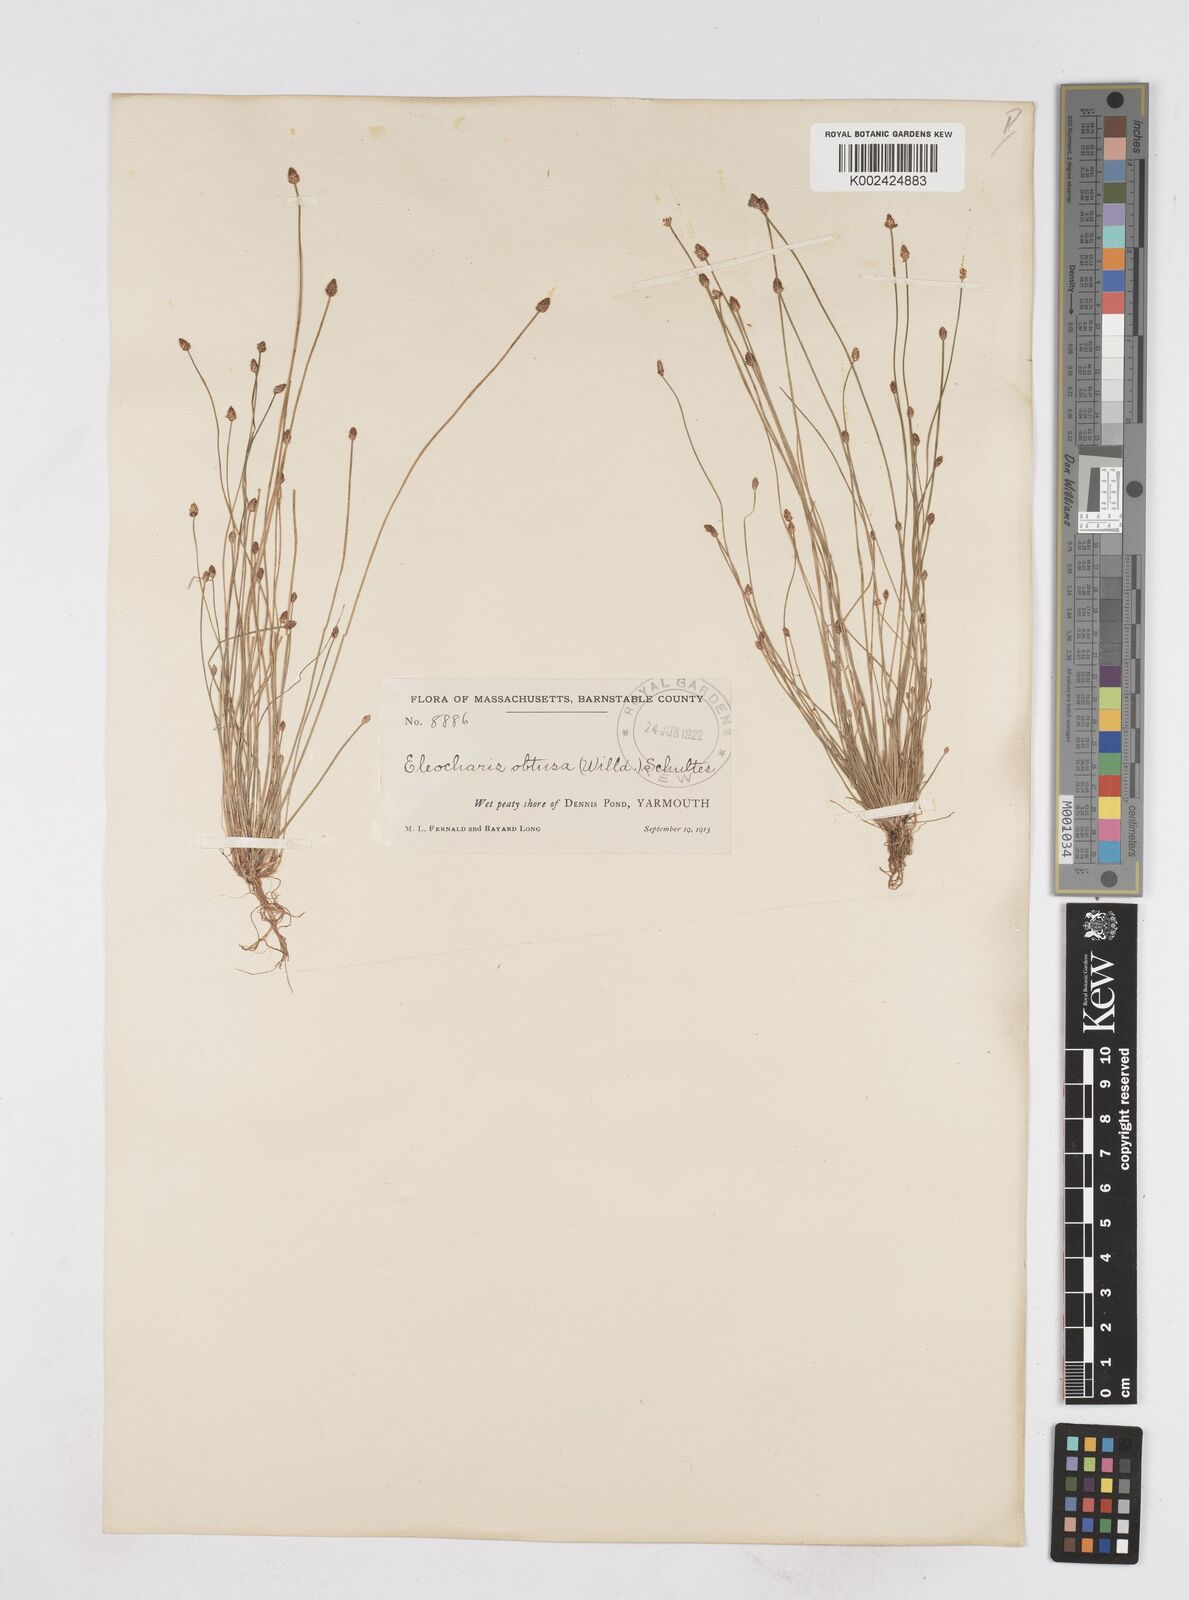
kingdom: Plantae
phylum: Tracheophyta
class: Liliopsida
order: Poales
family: Cyperaceae
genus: Eleocharis
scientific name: Eleocharis obtusa
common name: Blunt spikerush
